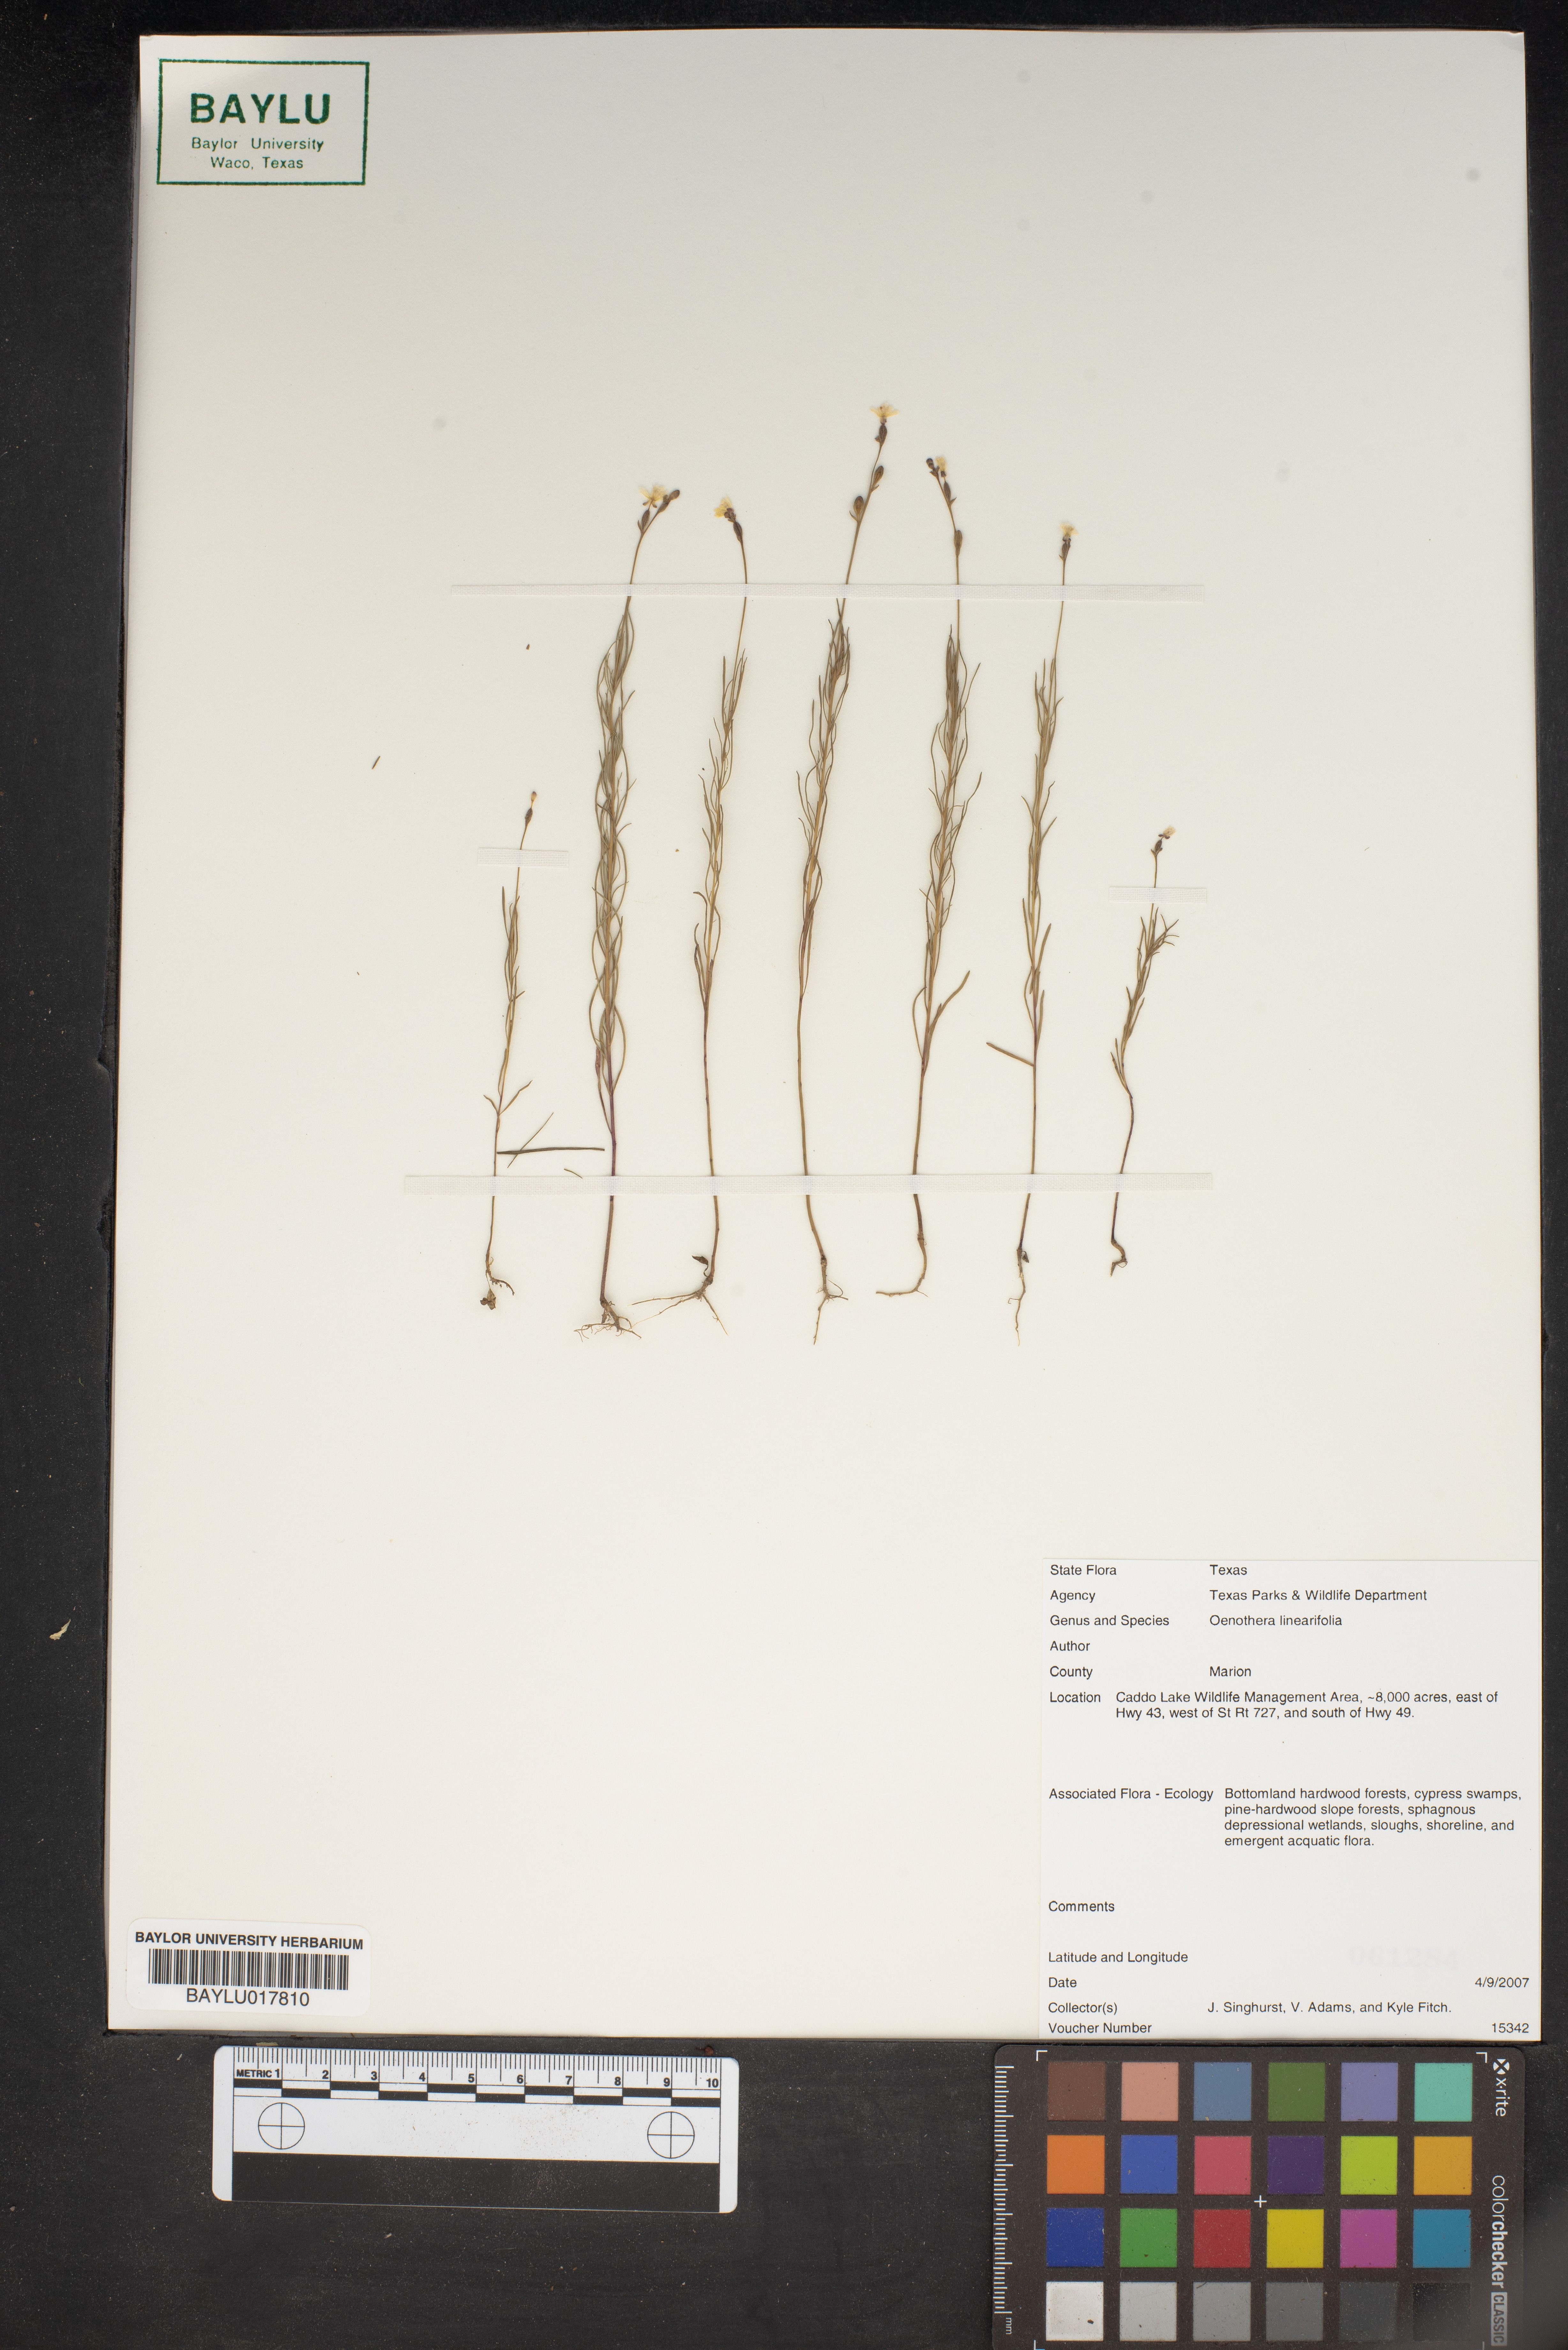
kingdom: Plantae
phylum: Tracheophyta
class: Magnoliopsida
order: Myrtales
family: Onagraceae
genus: Oenothera
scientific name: Oenothera
